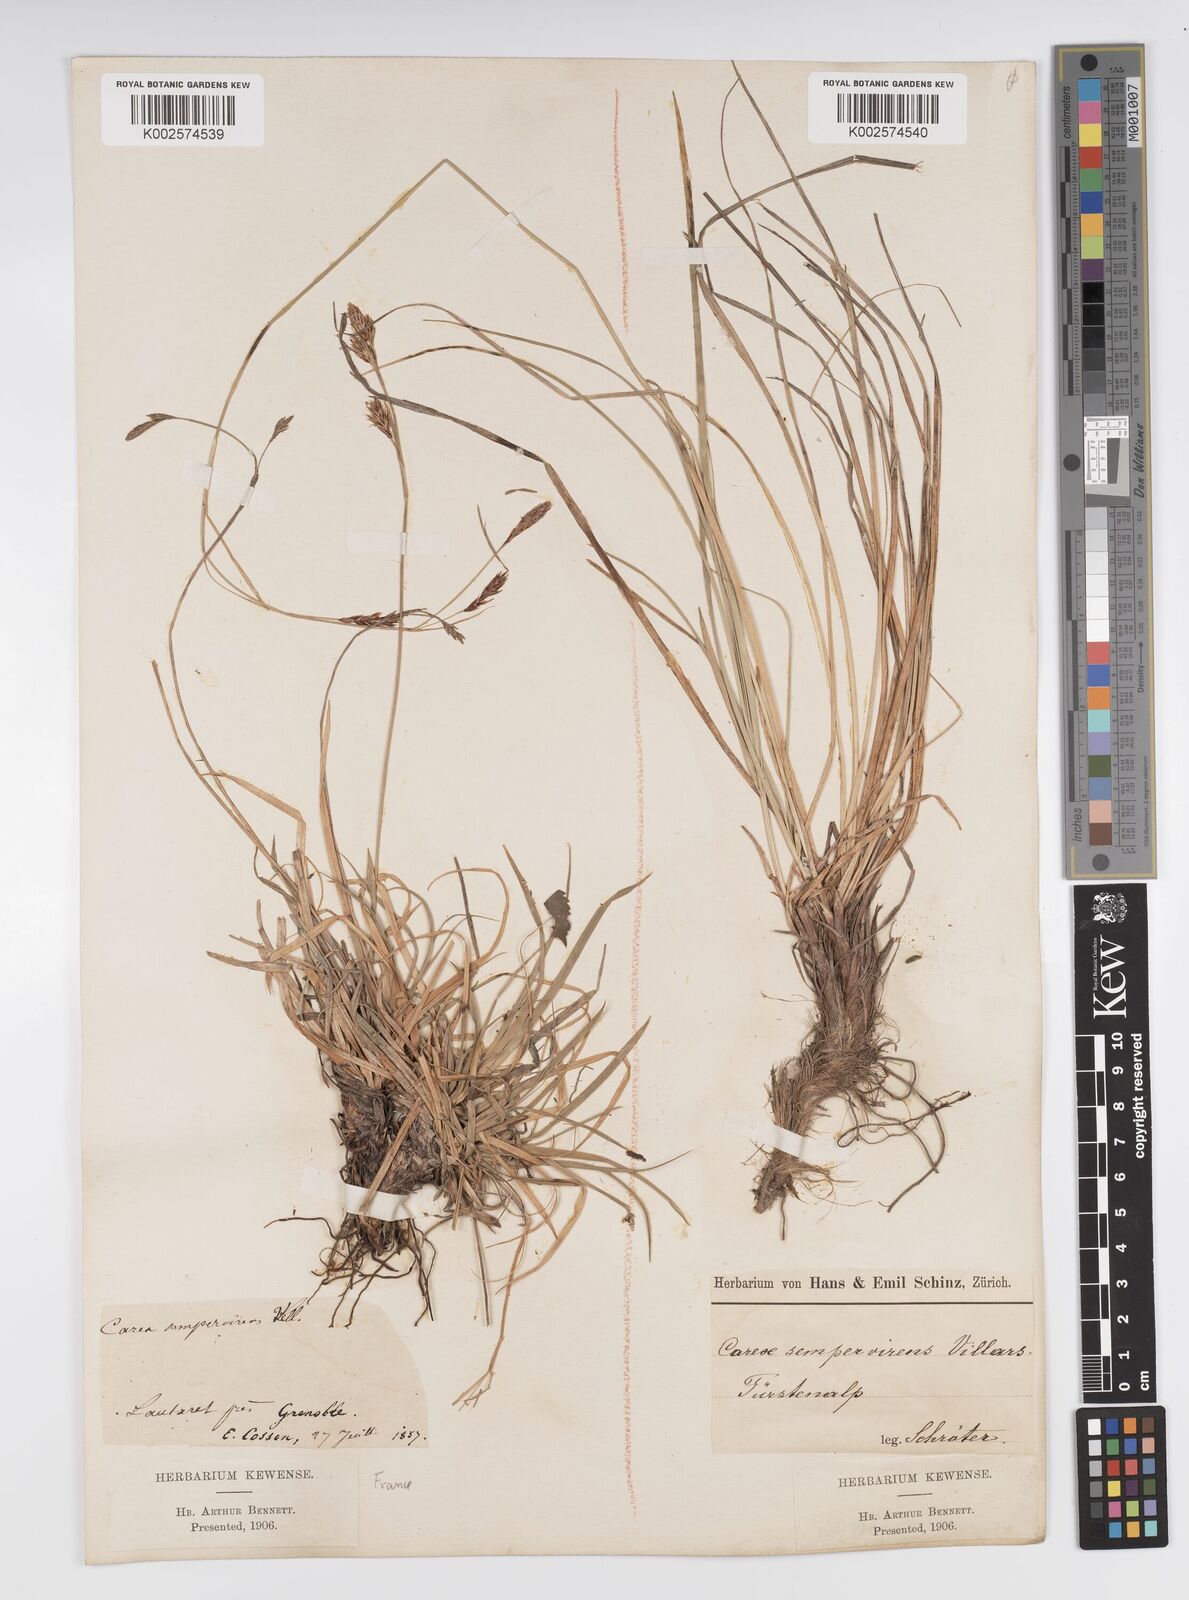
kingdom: Plantae
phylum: Tracheophyta
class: Liliopsida
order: Poales
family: Cyperaceae
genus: Carex
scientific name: Carex sempervirens
